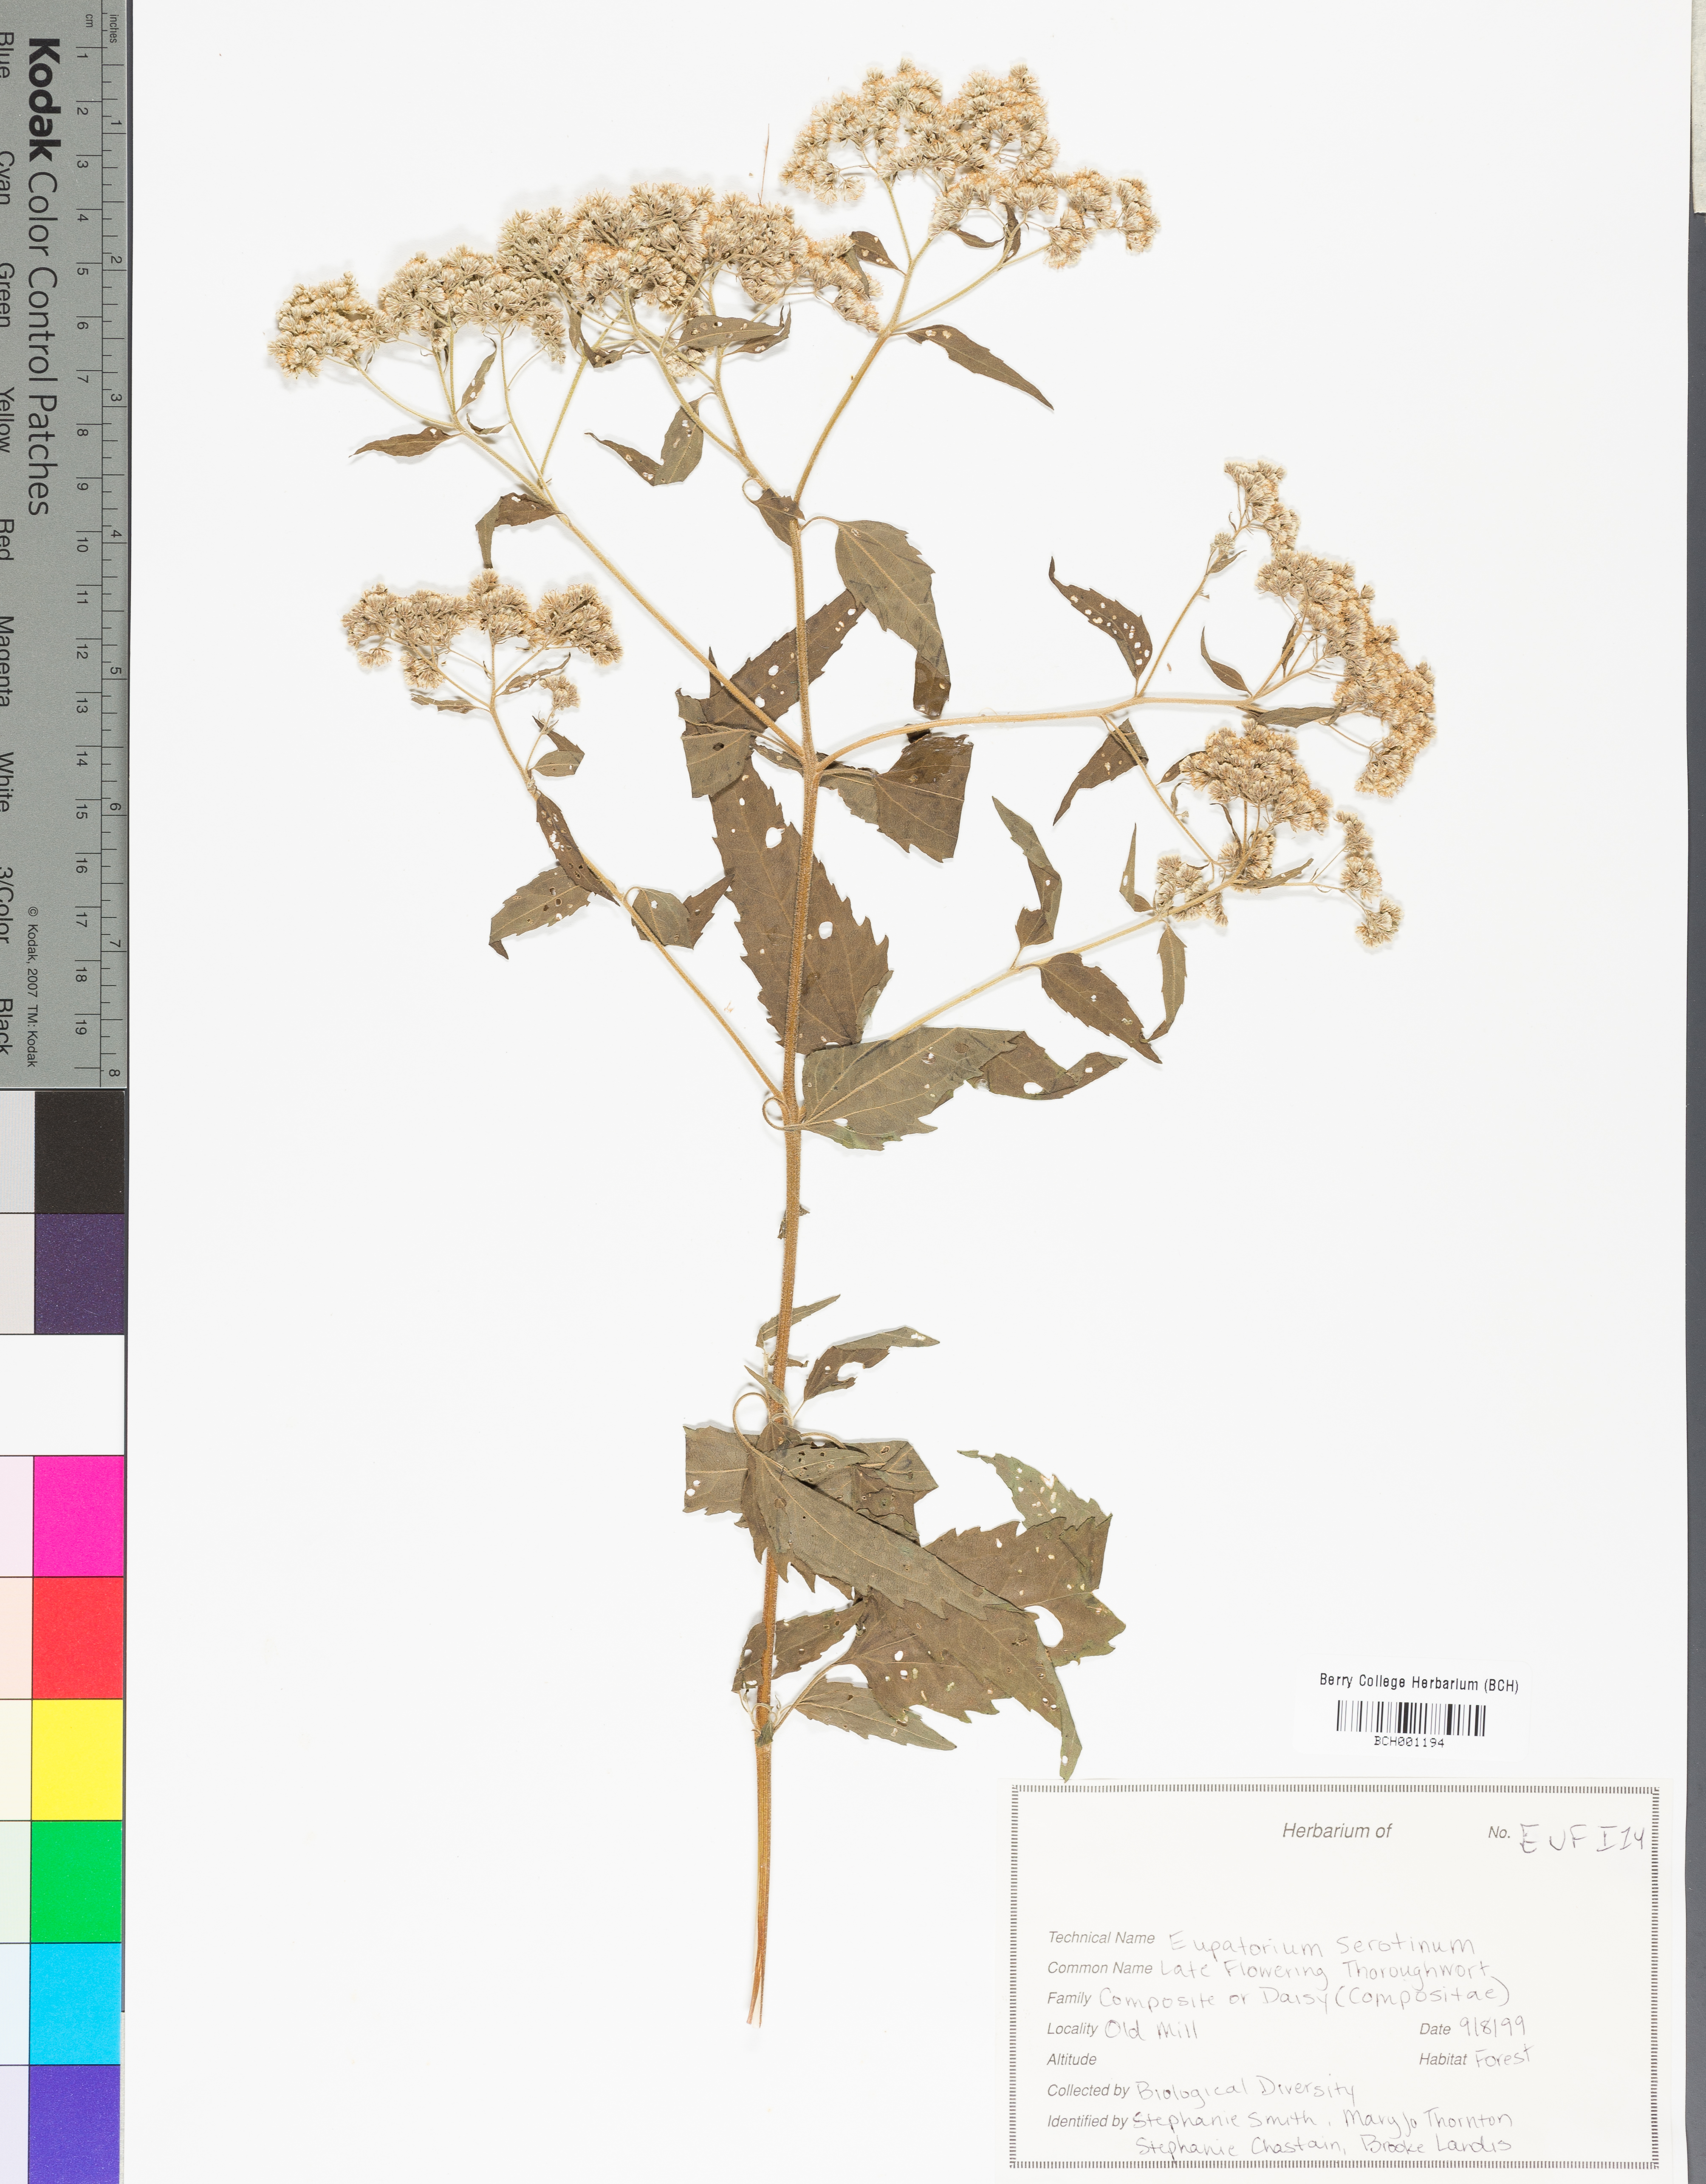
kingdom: Plantae
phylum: Tracheophyta
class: Magnoliopsida
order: Asterales
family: Asteraceae
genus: Eutrochium
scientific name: Eutrochium
